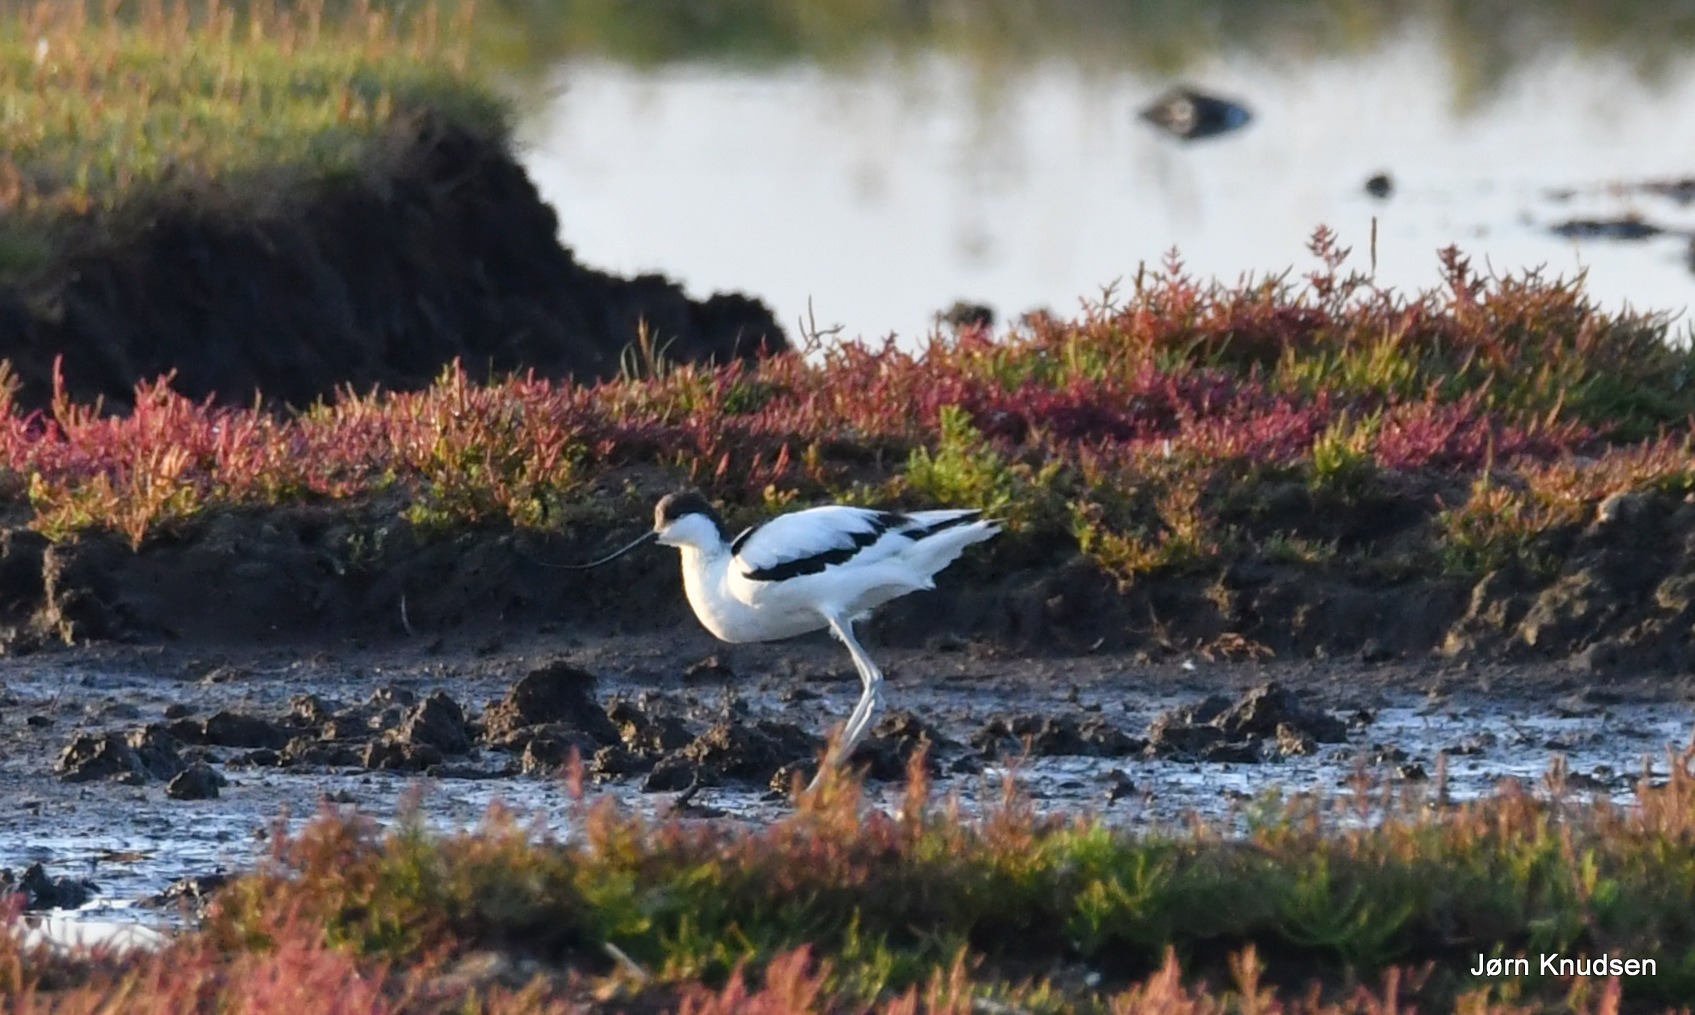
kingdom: Animalia
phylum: Chordata
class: Aves
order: Charadriiformes
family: Recurvirostridae
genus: Recurvirostra
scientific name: Recurvirostra avosetta
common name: Klyde
